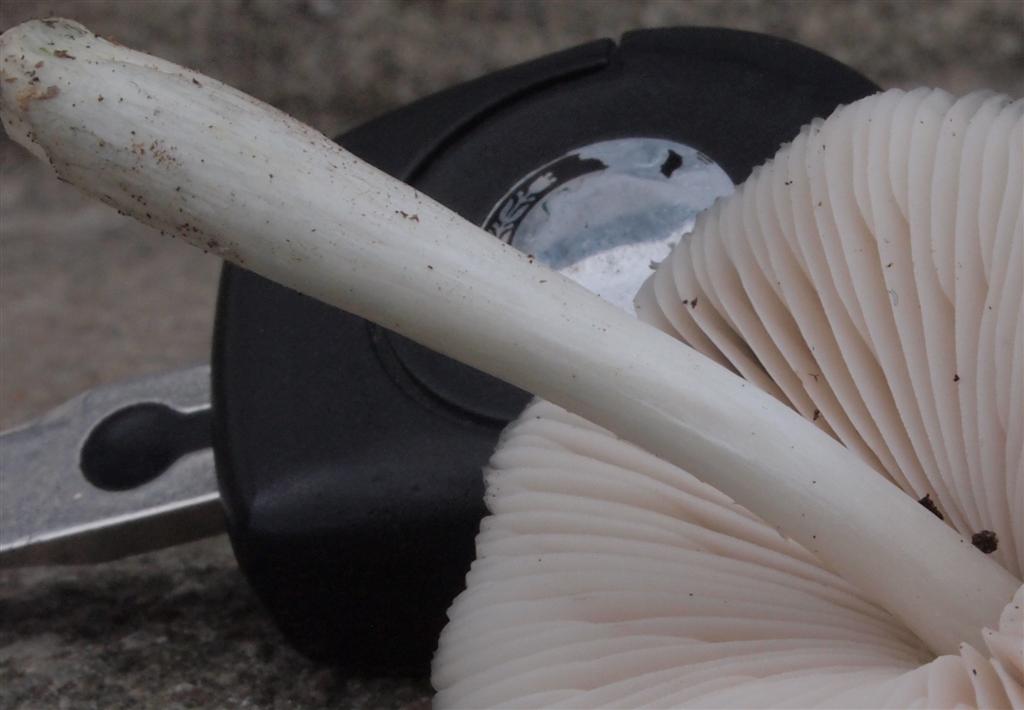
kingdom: Fungi
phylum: Basidiomycota
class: Agaricomycetes
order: Agaricales
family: Pluteaceae
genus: Pluteus
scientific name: Pluteus salicinus
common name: stiv skærmhat
